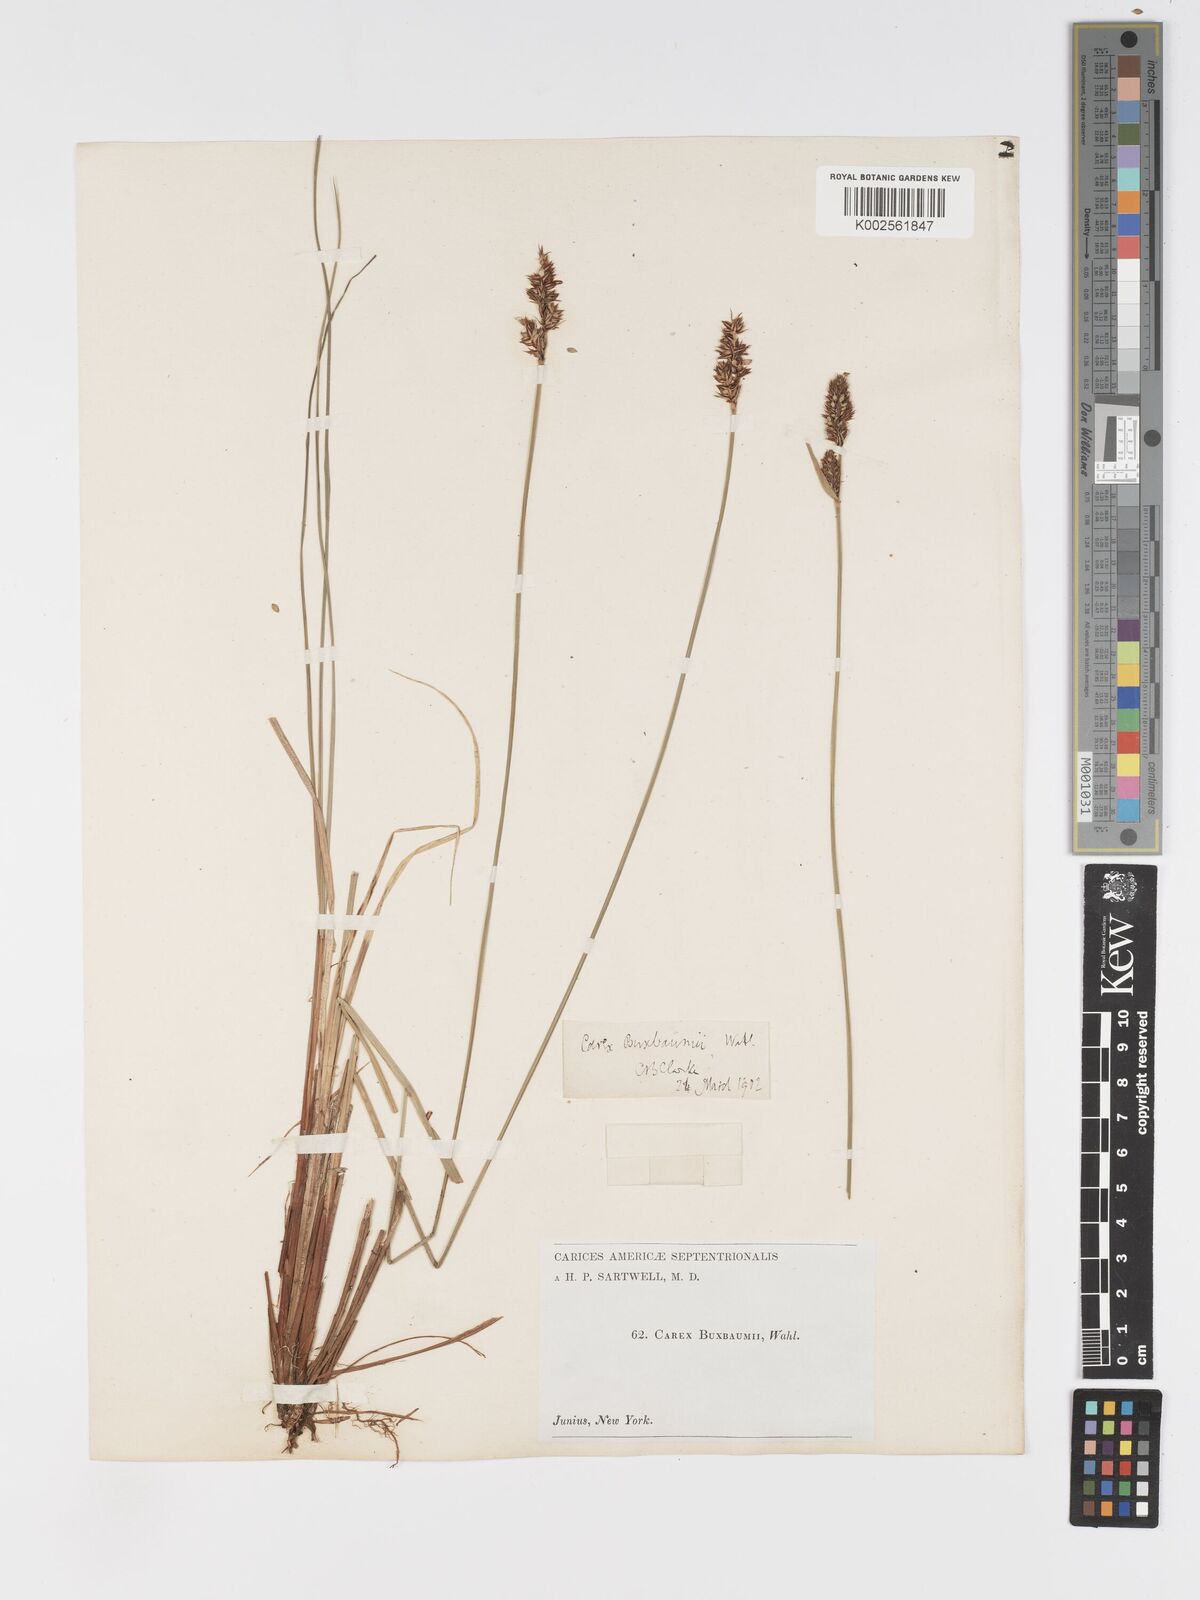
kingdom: Plantae
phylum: Tracheophyta
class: Liliopsida
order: Poales
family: Cyperaceae
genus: Carex
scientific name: Carex buxbaumii
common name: Club sedge
